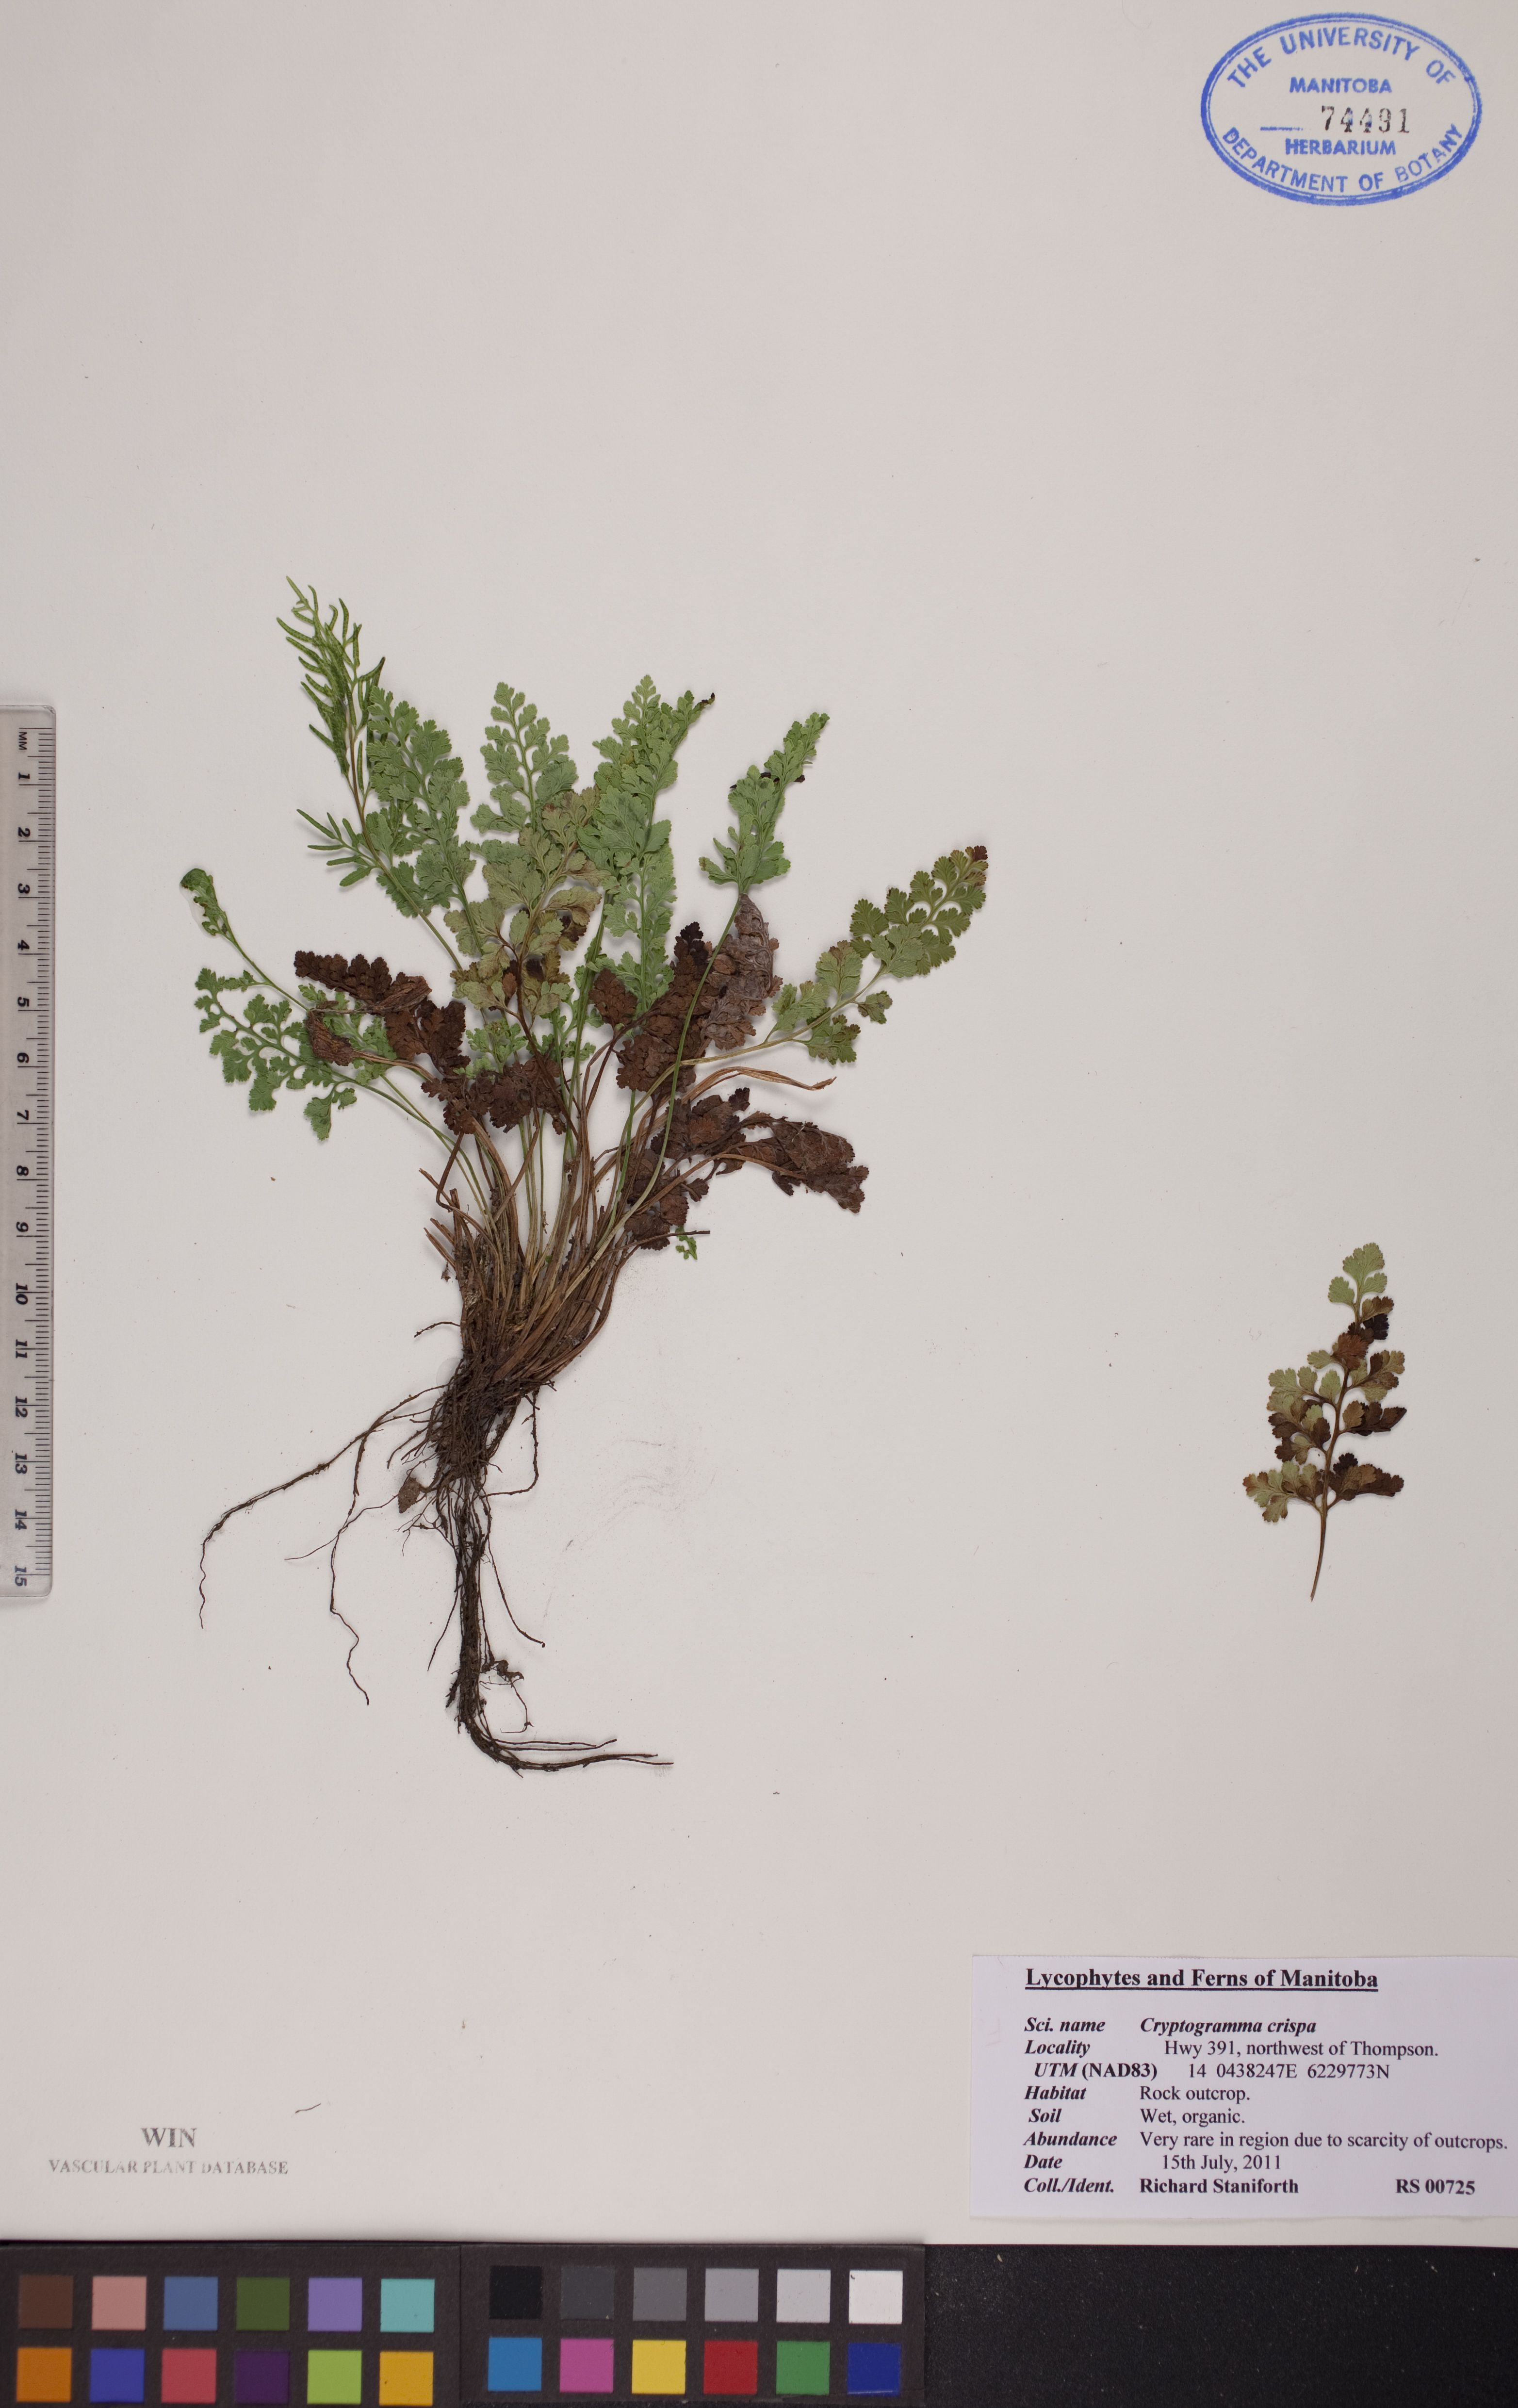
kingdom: Plantae
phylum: Tracheophyta
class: Polypodiopsida
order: Polypodiales
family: Pteridaceae
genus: Cryptogramma
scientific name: Cryptogramma acrostichoides
